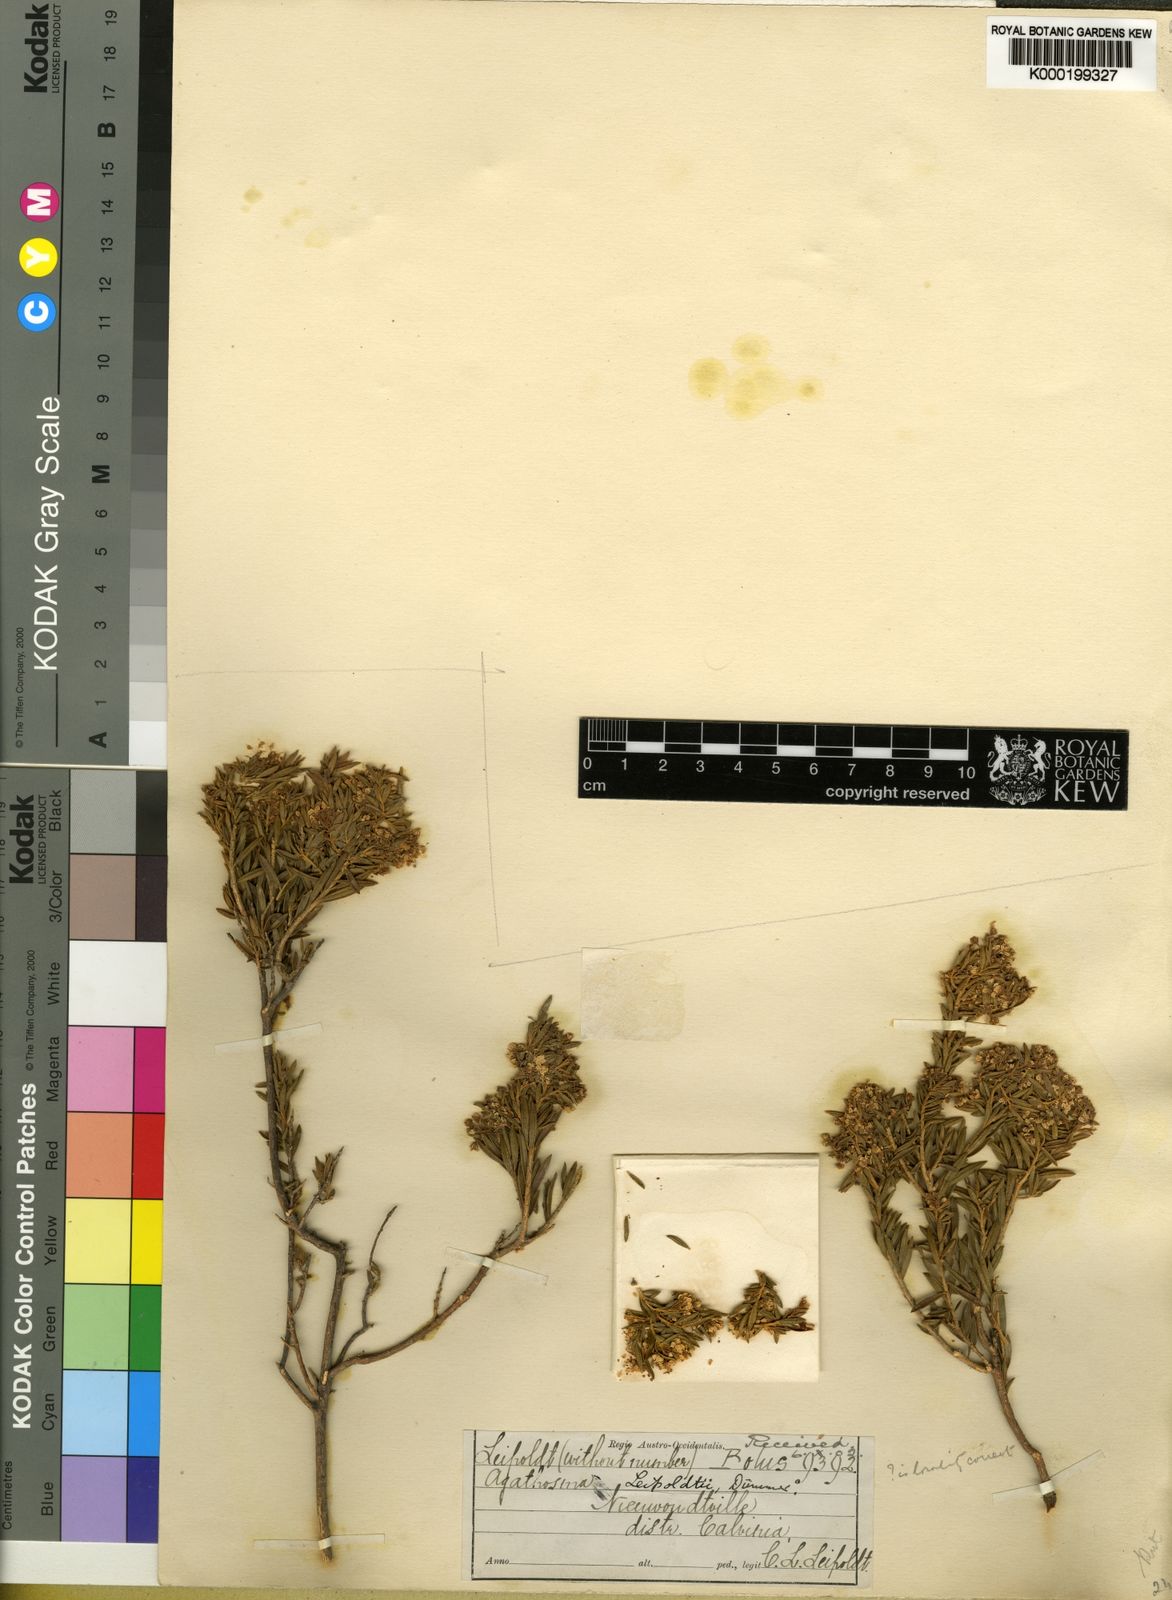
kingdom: Plantae
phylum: Tracheophyta
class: Magnoliopsida
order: Sapindales
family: Rutaceae
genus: Agathosma
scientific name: Agathosma bisulca
